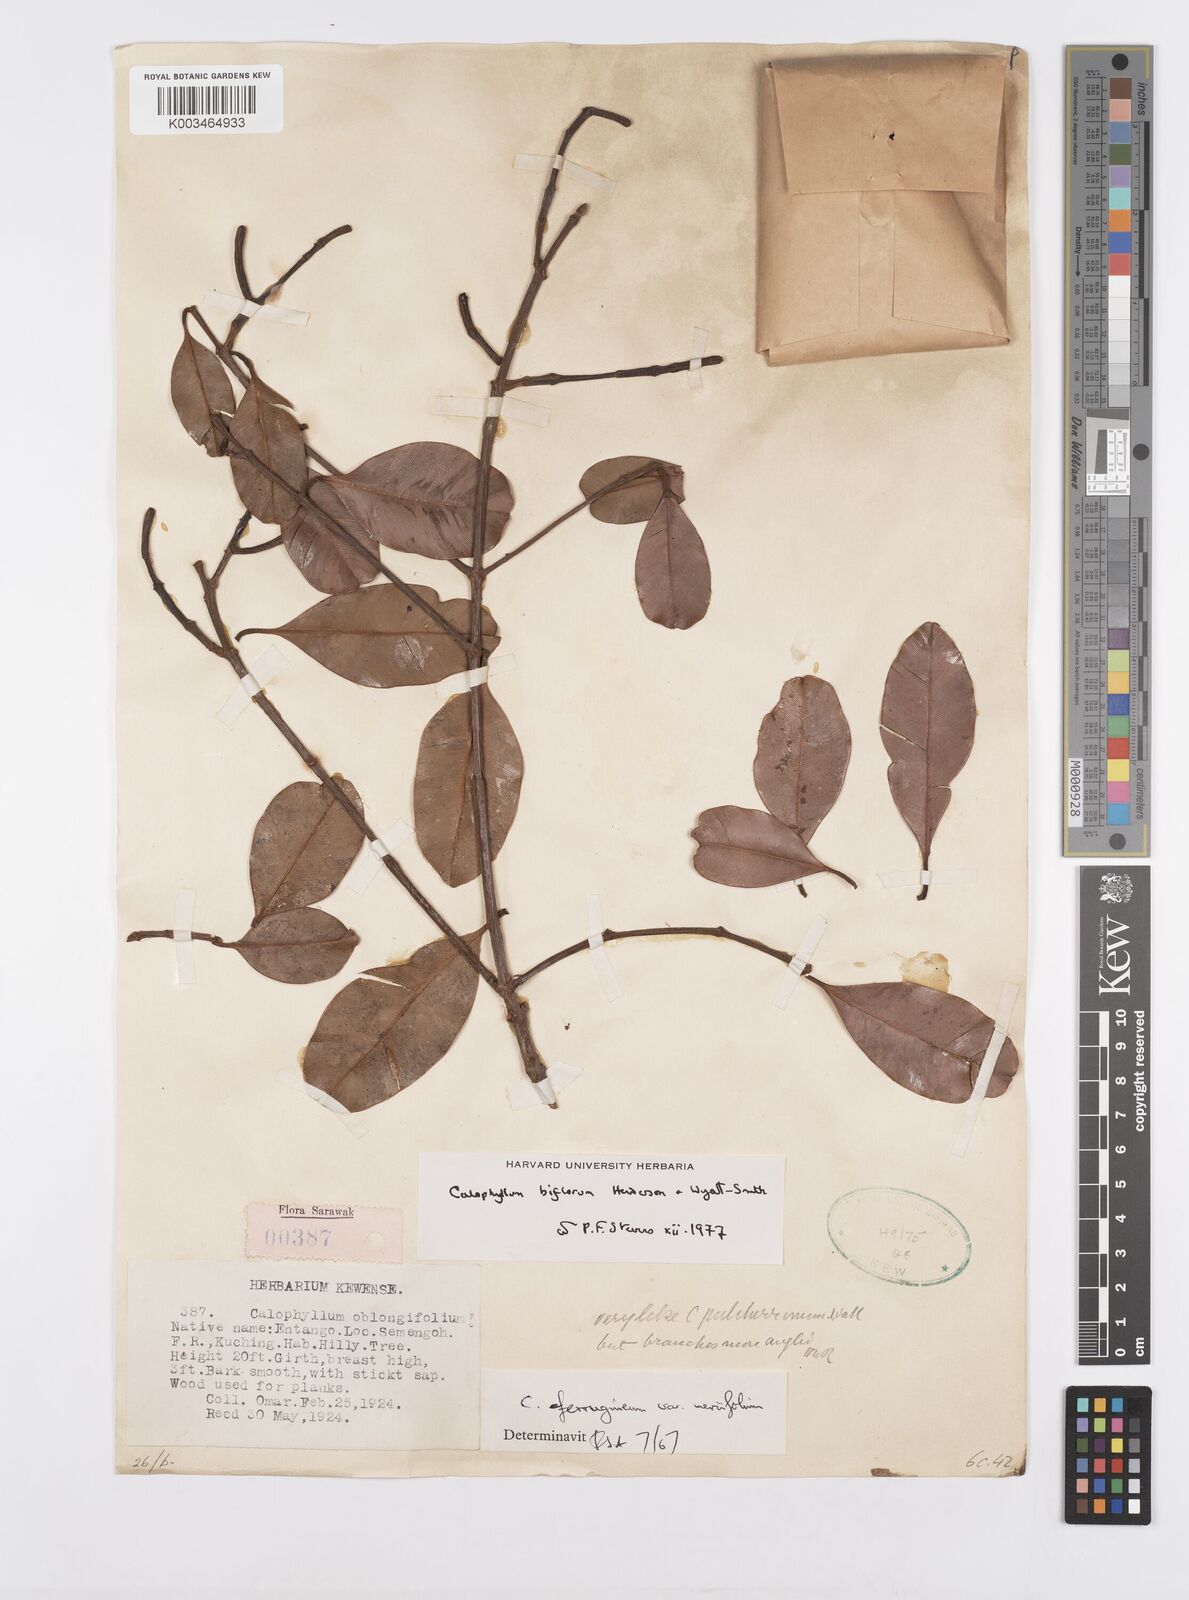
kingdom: Plantae
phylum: Tracheophyta
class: Magnoliopsida
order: Malpighiales
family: Calophyllaceae
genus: Calophyllum
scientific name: Calophyllum biflorum
